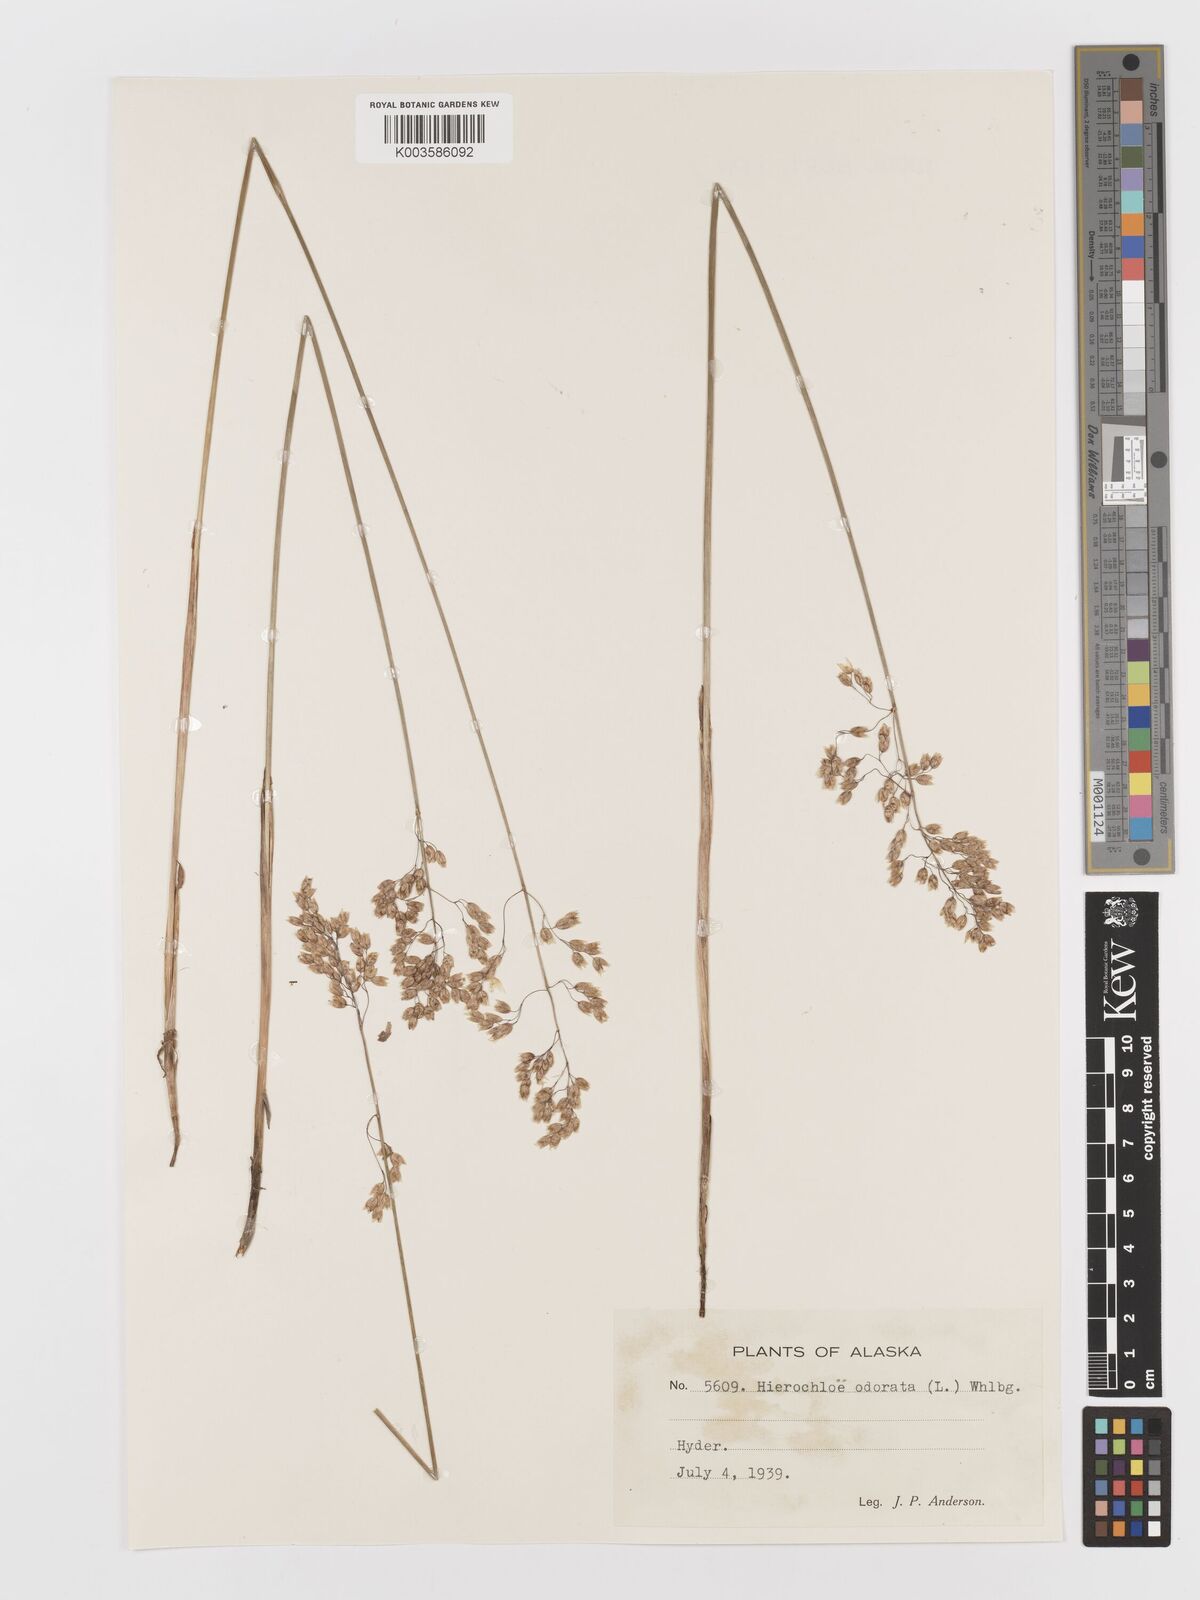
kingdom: Plantae
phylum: Tracheophyta
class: Liliopsida
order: Poales
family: Poaceae
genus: Anthoxanthum
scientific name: Anthoxanthum nitens
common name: Holy grass
